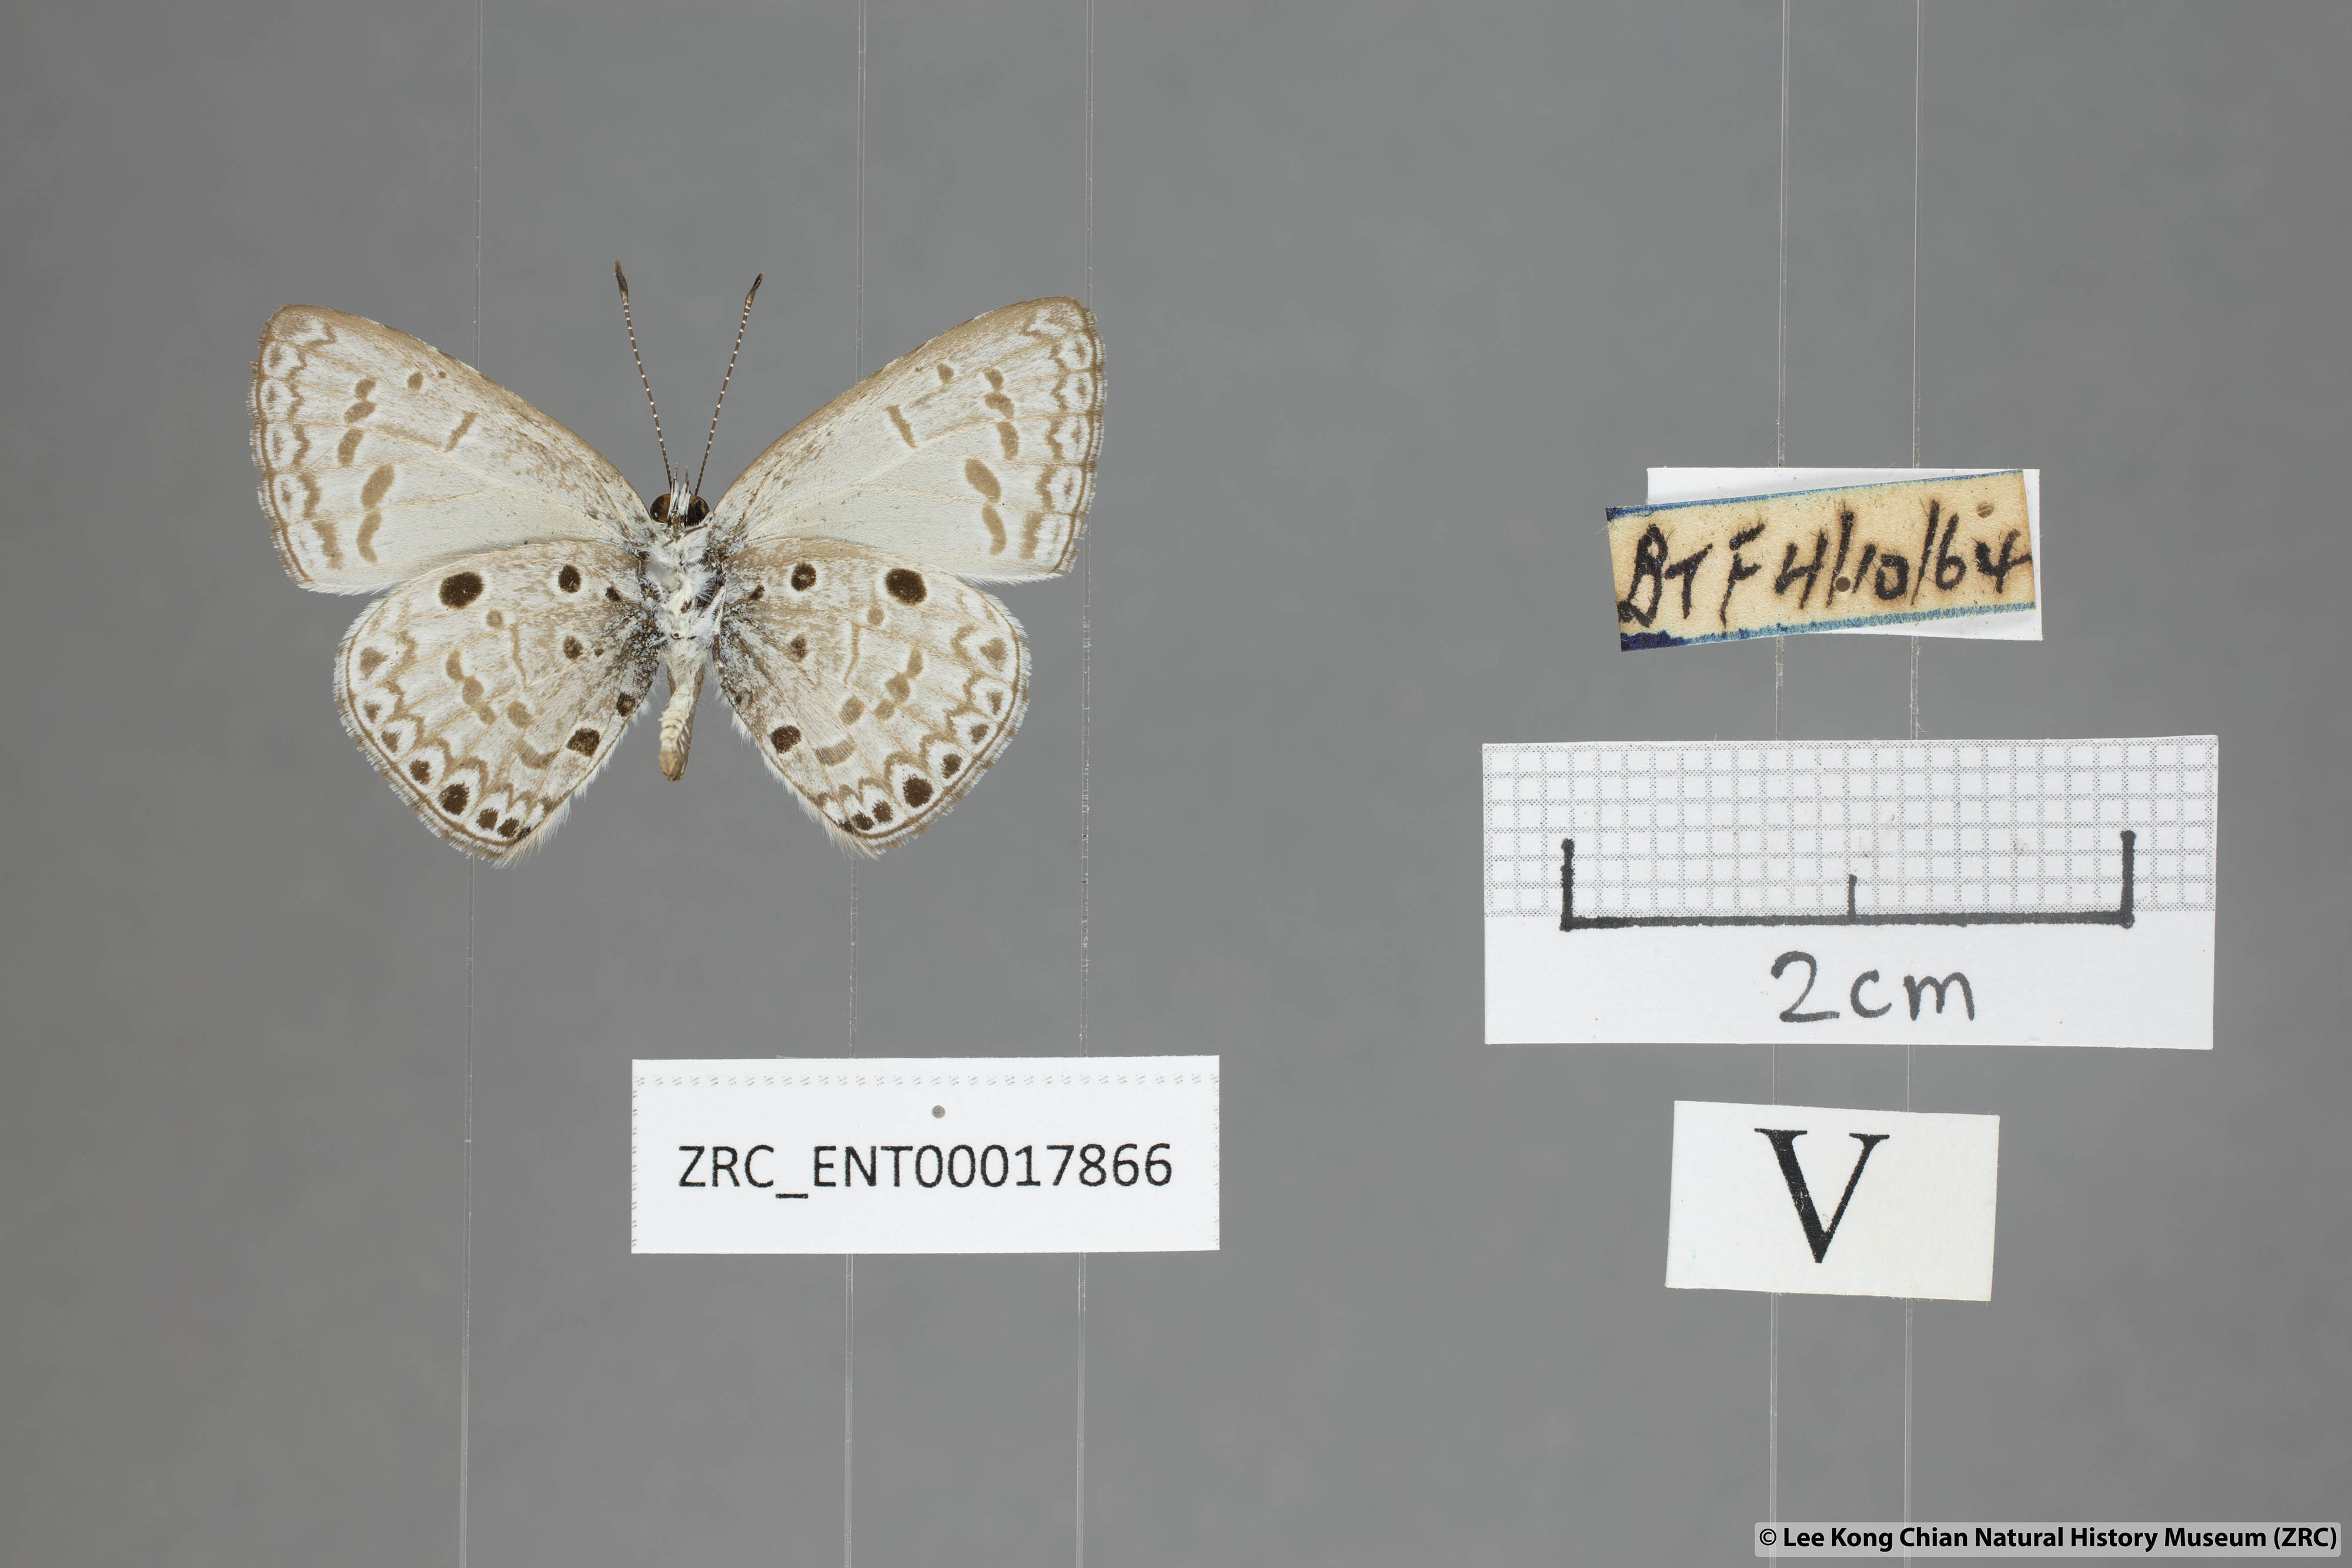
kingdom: Animalia
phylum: Arthropoda
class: Insecta
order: Lepidoptera
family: Lycaenidae
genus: Acytolepis
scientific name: Acytolepis puspa
